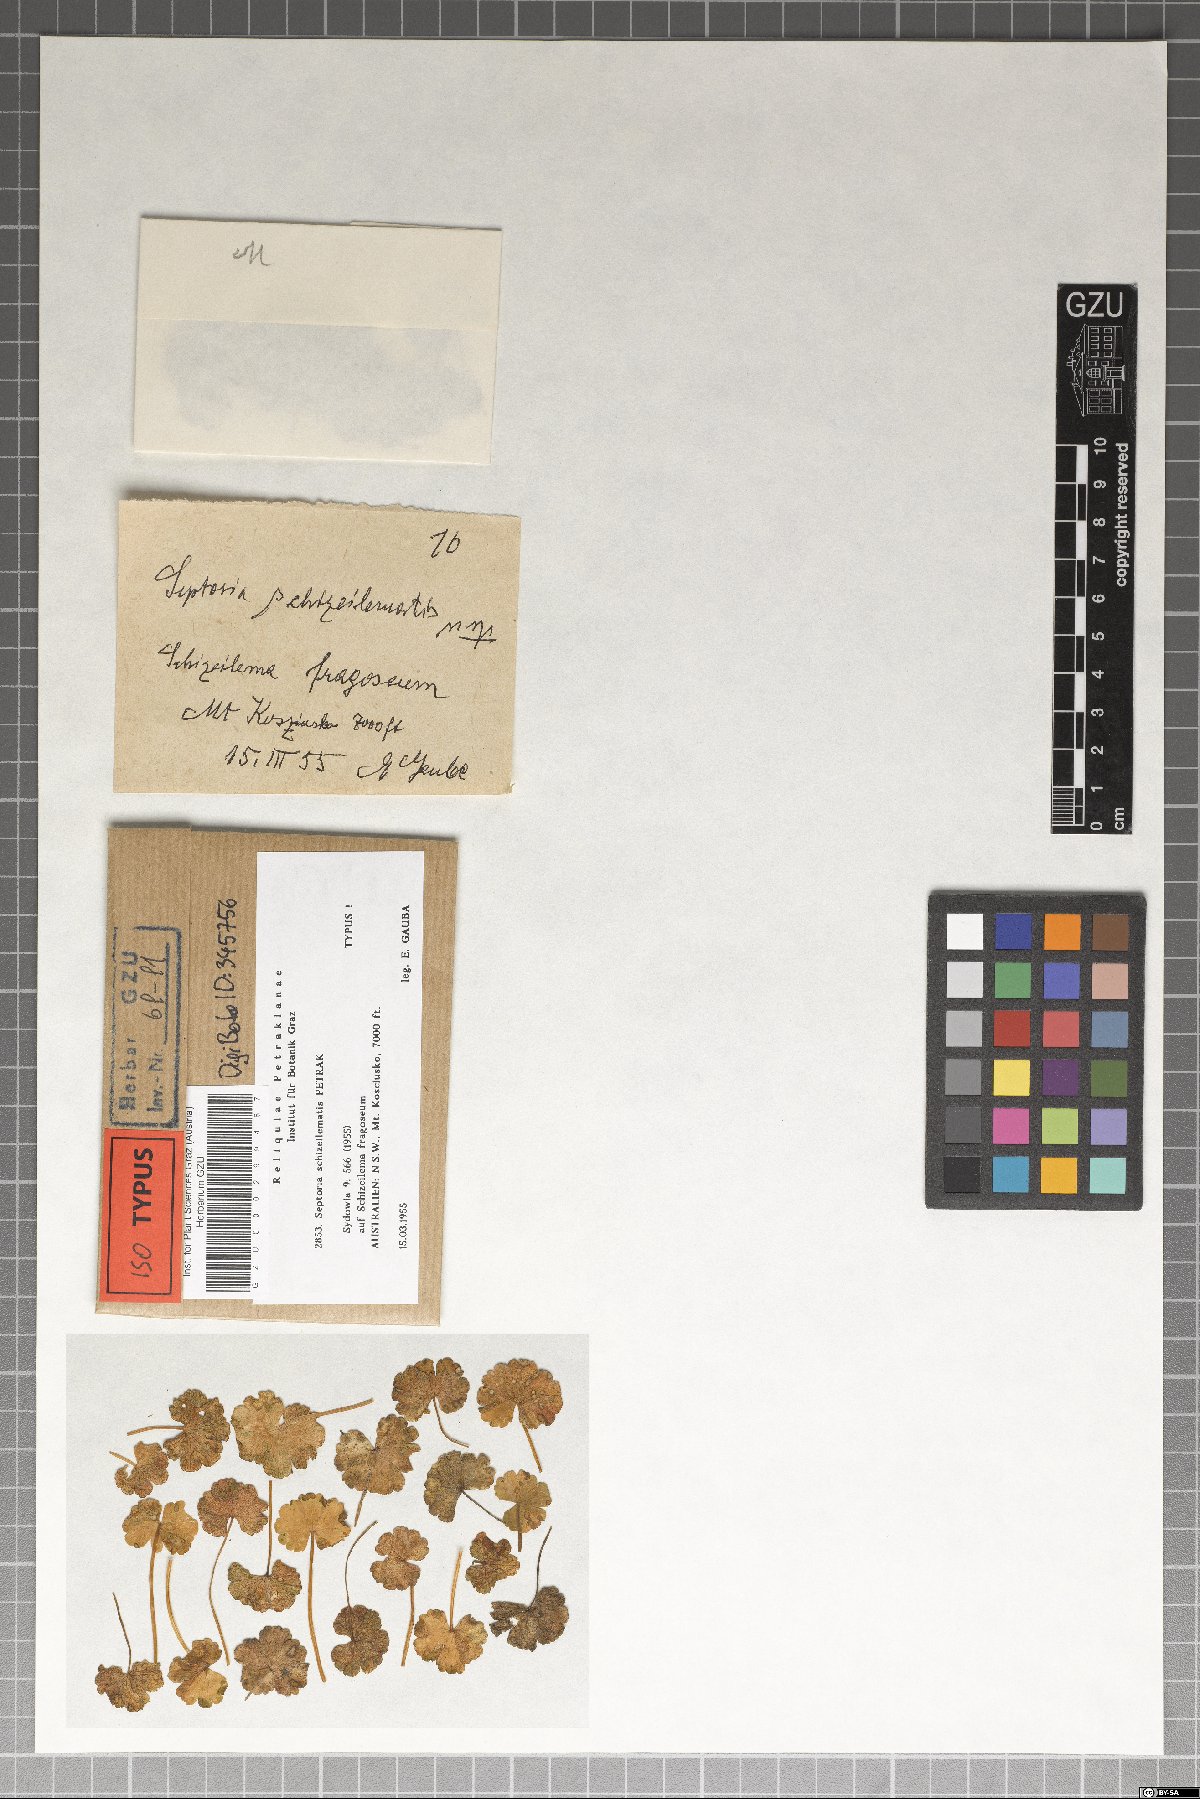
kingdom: Fungi
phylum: Ascomycota
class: Dothideomycetes
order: Mycosphaerellales
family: Mycosphaerellaceae
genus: Septoria
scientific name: Septoria schizeilematis
